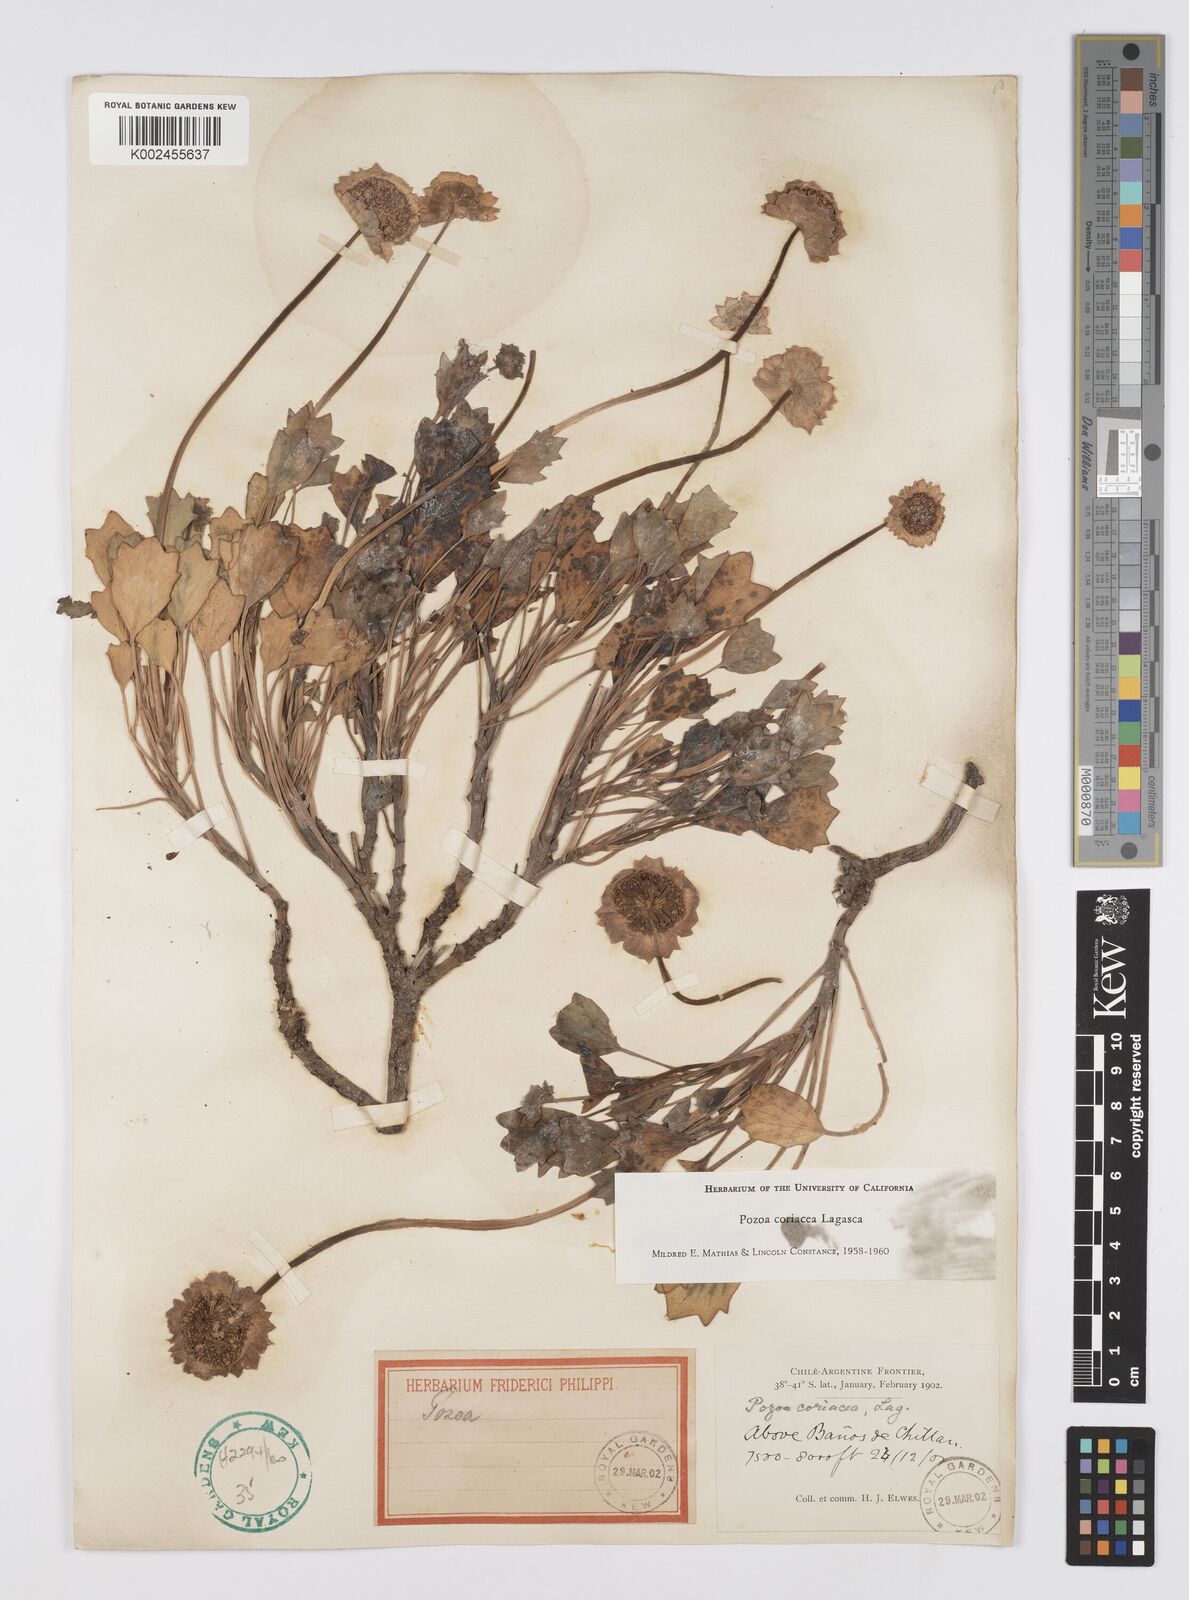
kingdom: Plantae
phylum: Tracheophyta
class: Magnoliopsida
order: Apiales
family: Apiaceae
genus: Pozoa
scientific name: Pozoa coriacea
